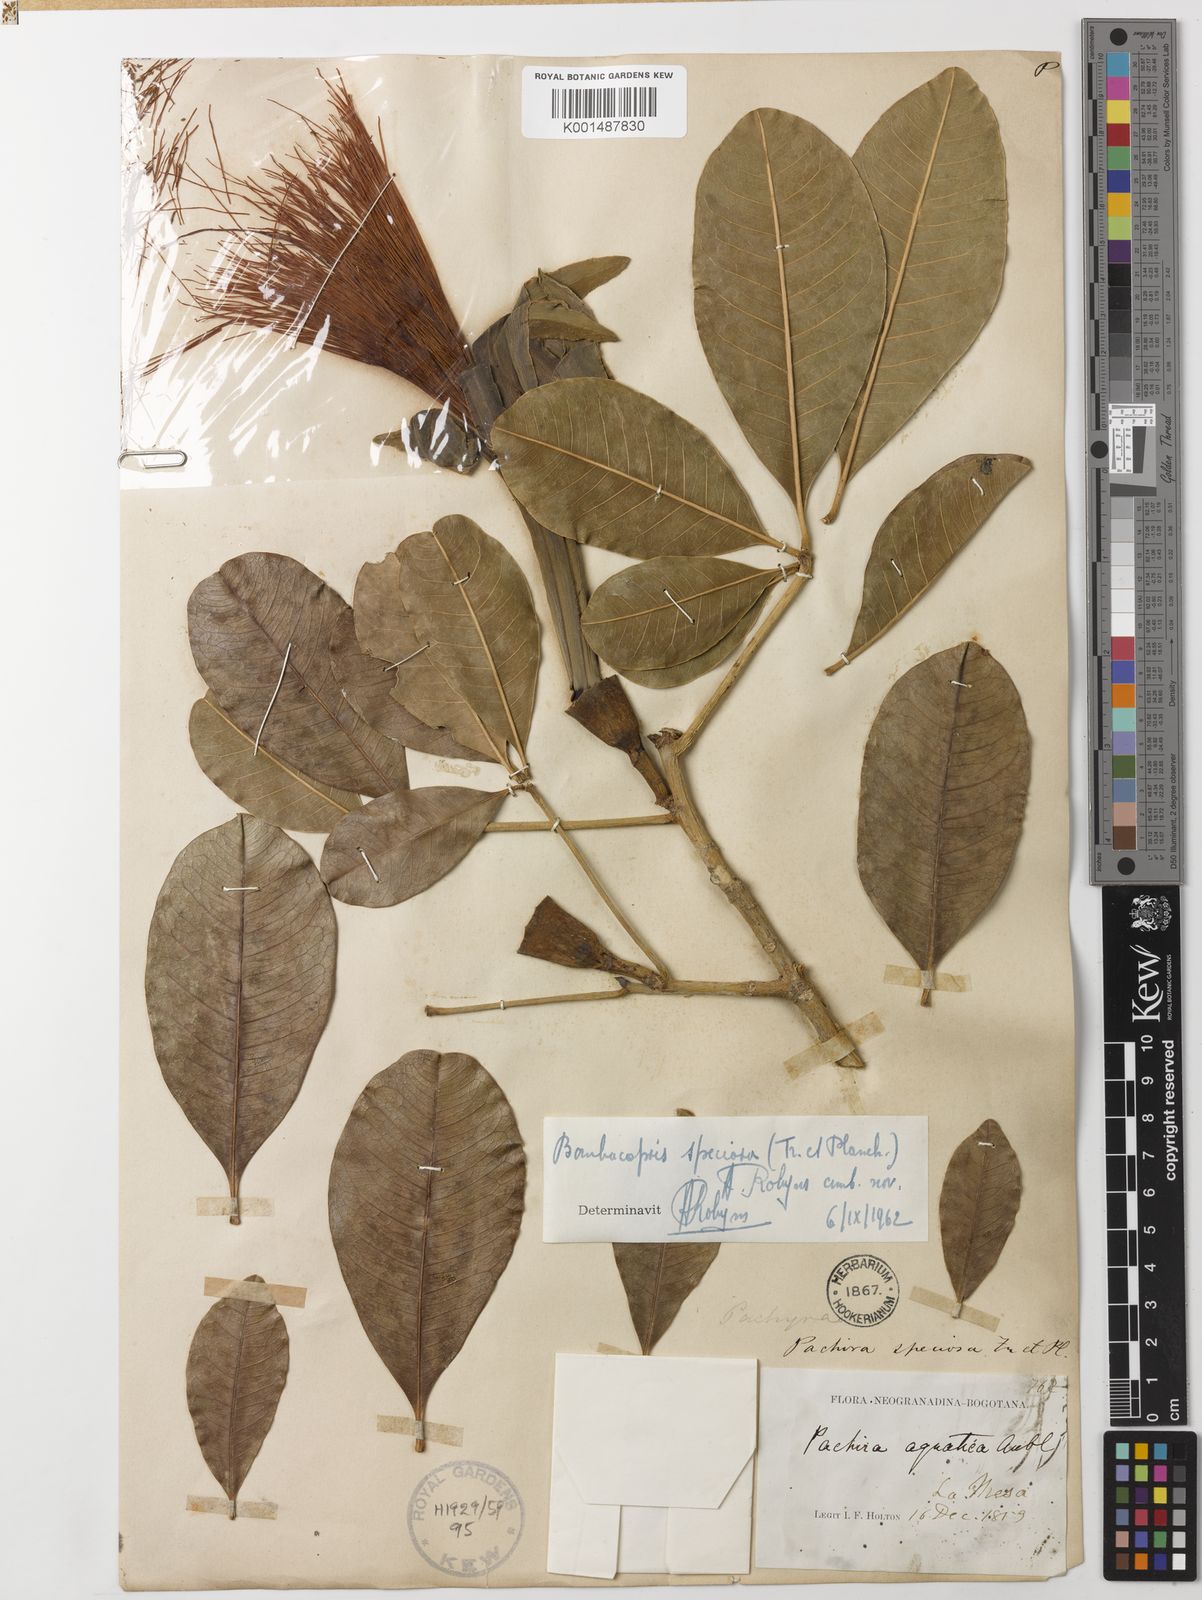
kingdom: Plantae
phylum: Tracheophyta
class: Magnoliopsida
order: Malvales
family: Malvaceae
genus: Pachira
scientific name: Pachira speciosa
